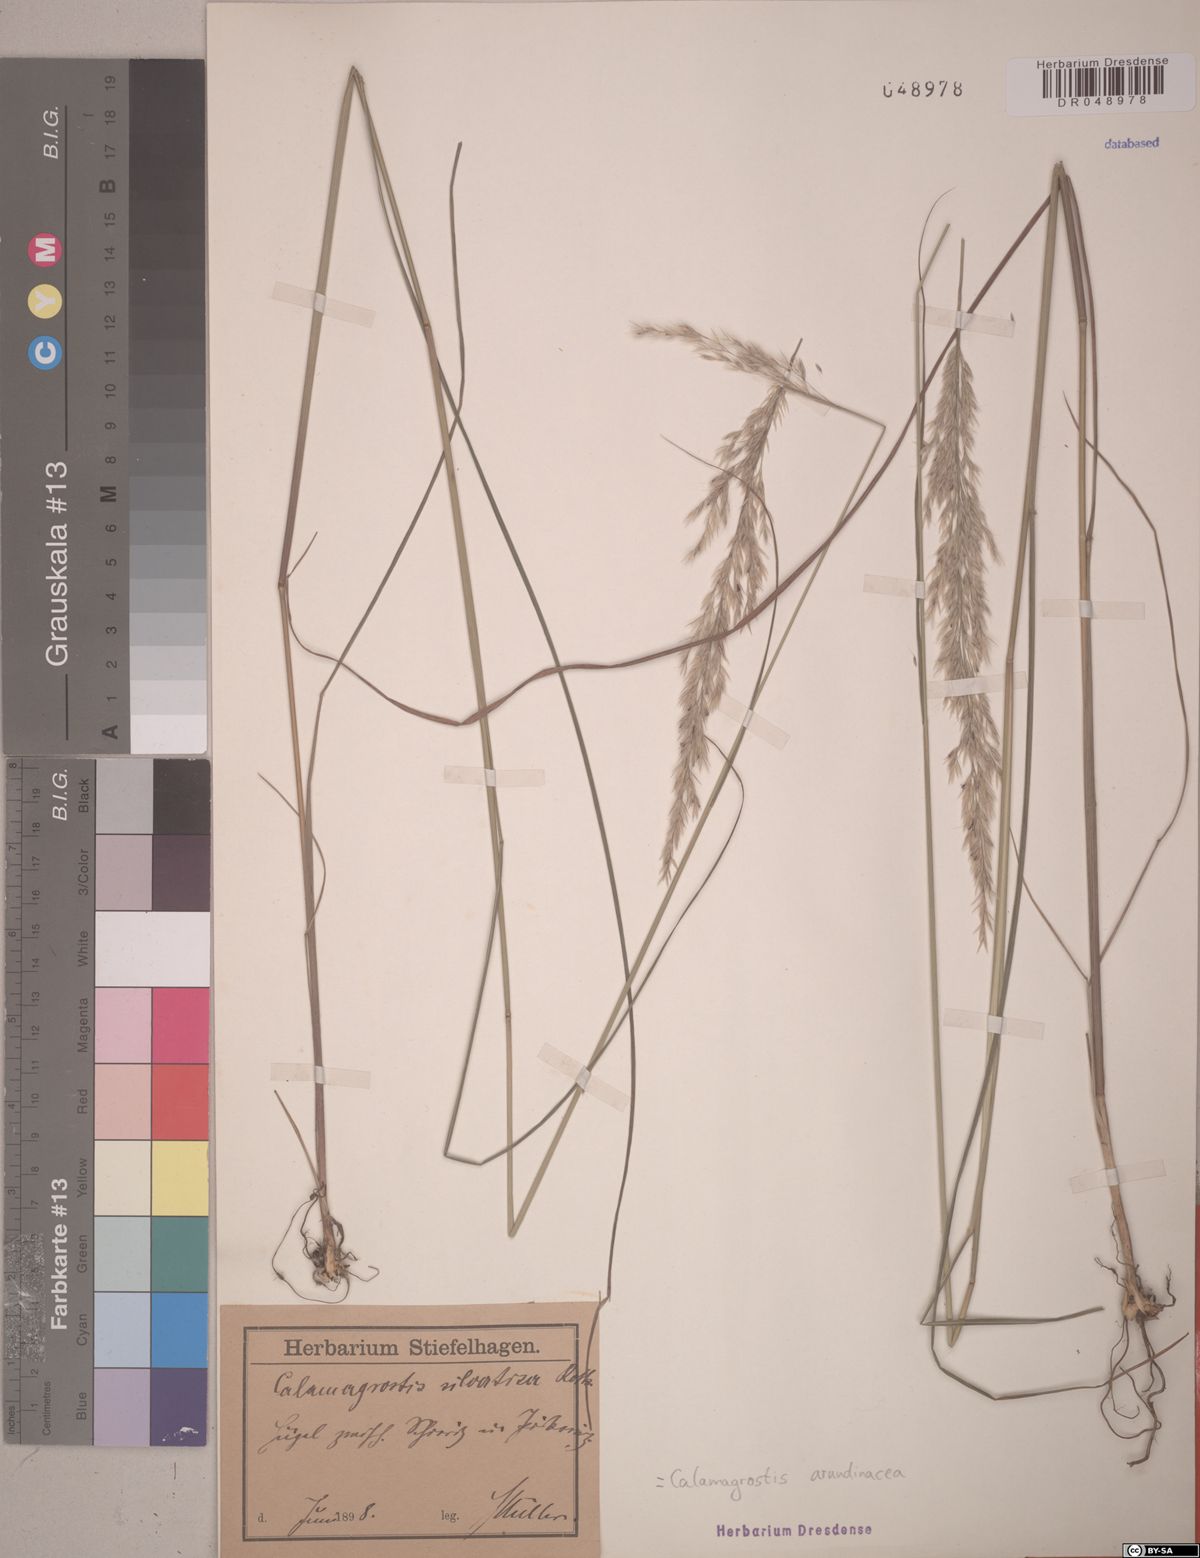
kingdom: Plantae
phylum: Tracheophyta
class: Liliopsida
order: Poales
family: Poaceae
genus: Calamagrostis
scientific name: Calamagrostis arundinacea
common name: Metskastik
